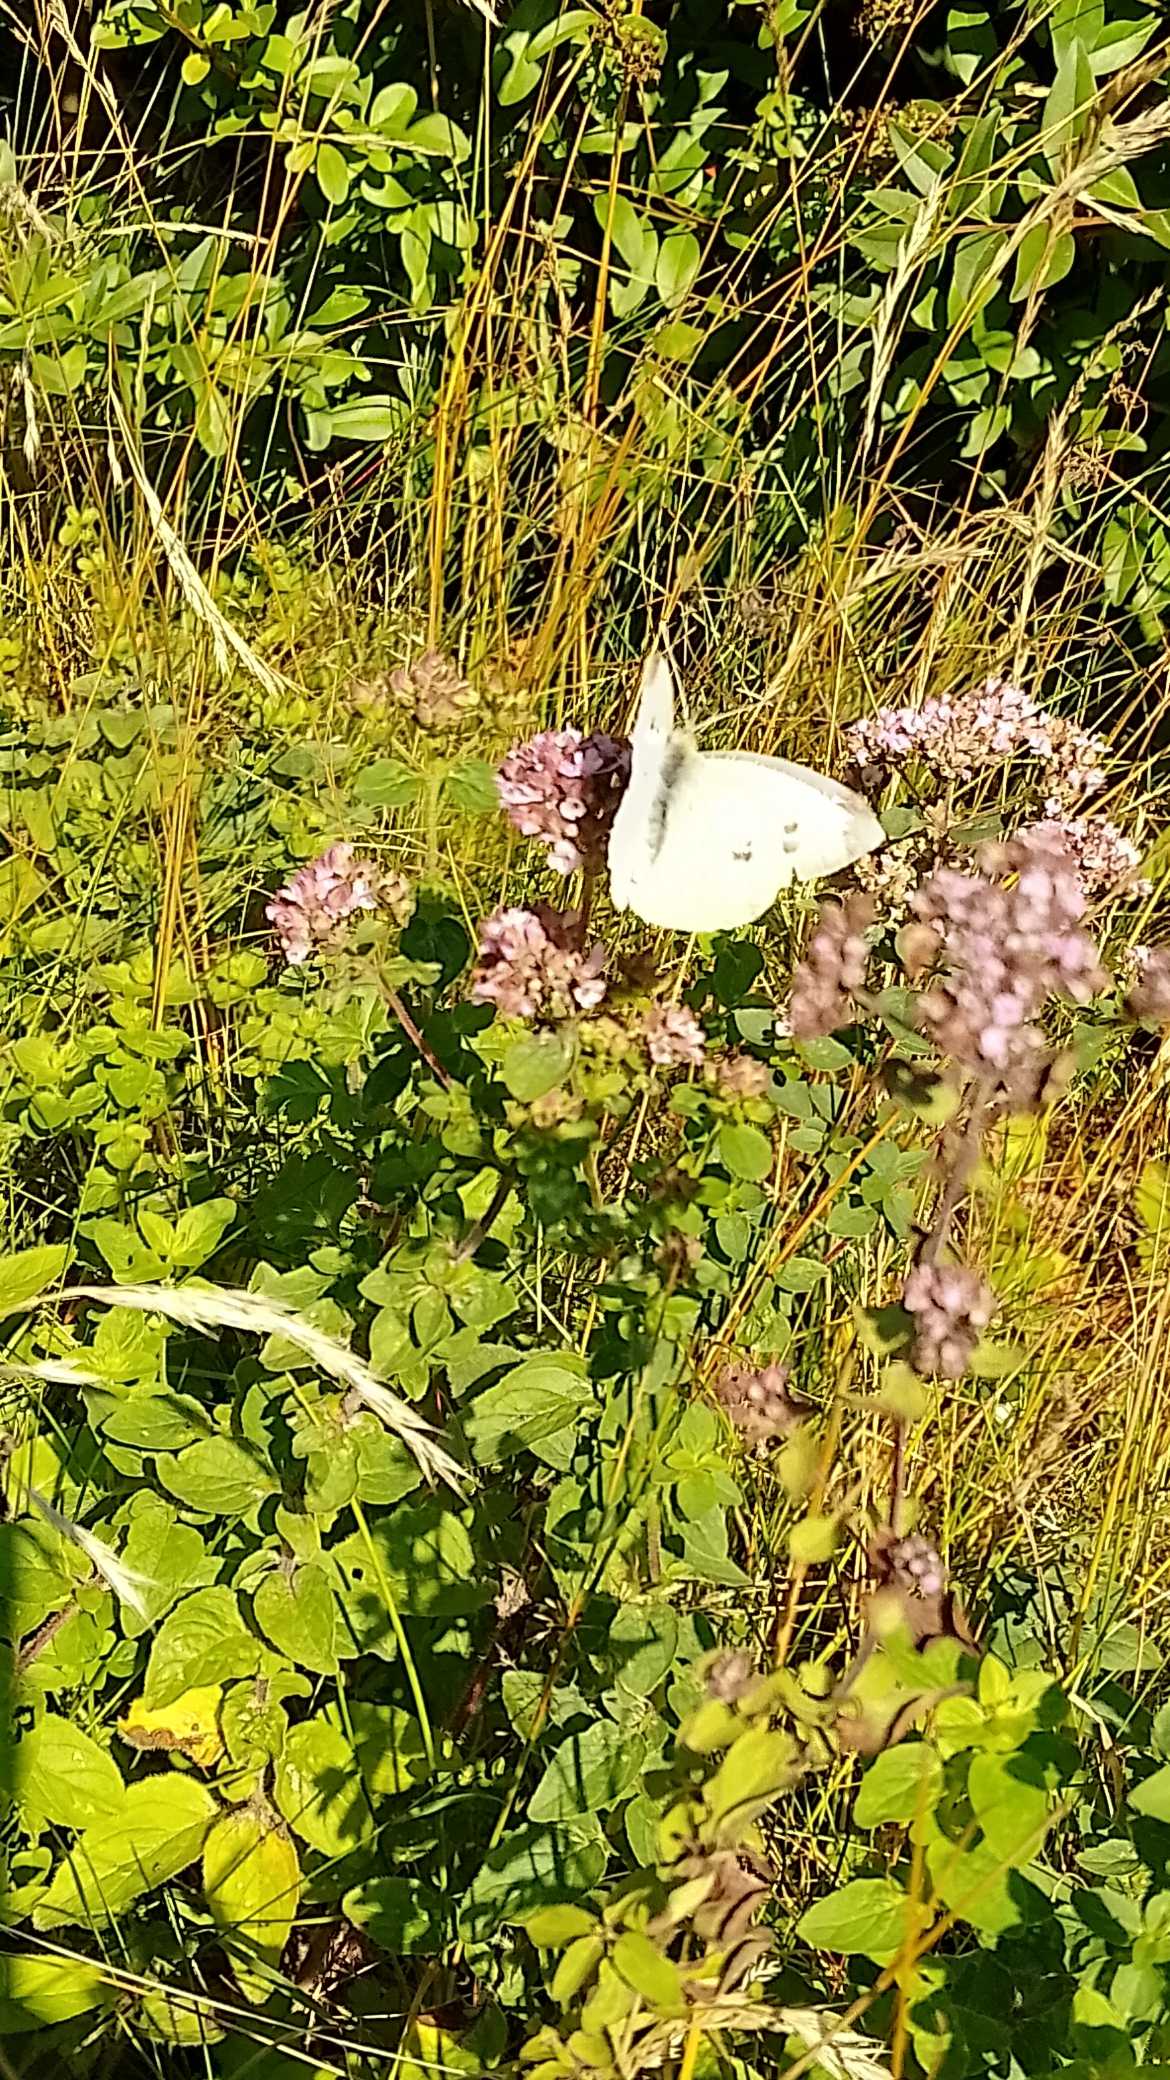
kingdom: Animalia
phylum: Arthropoda
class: Insecta
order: Lepidoptera
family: Pieridae
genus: Pieris
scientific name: Pieris rapae
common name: Lille kålsommerfugl
